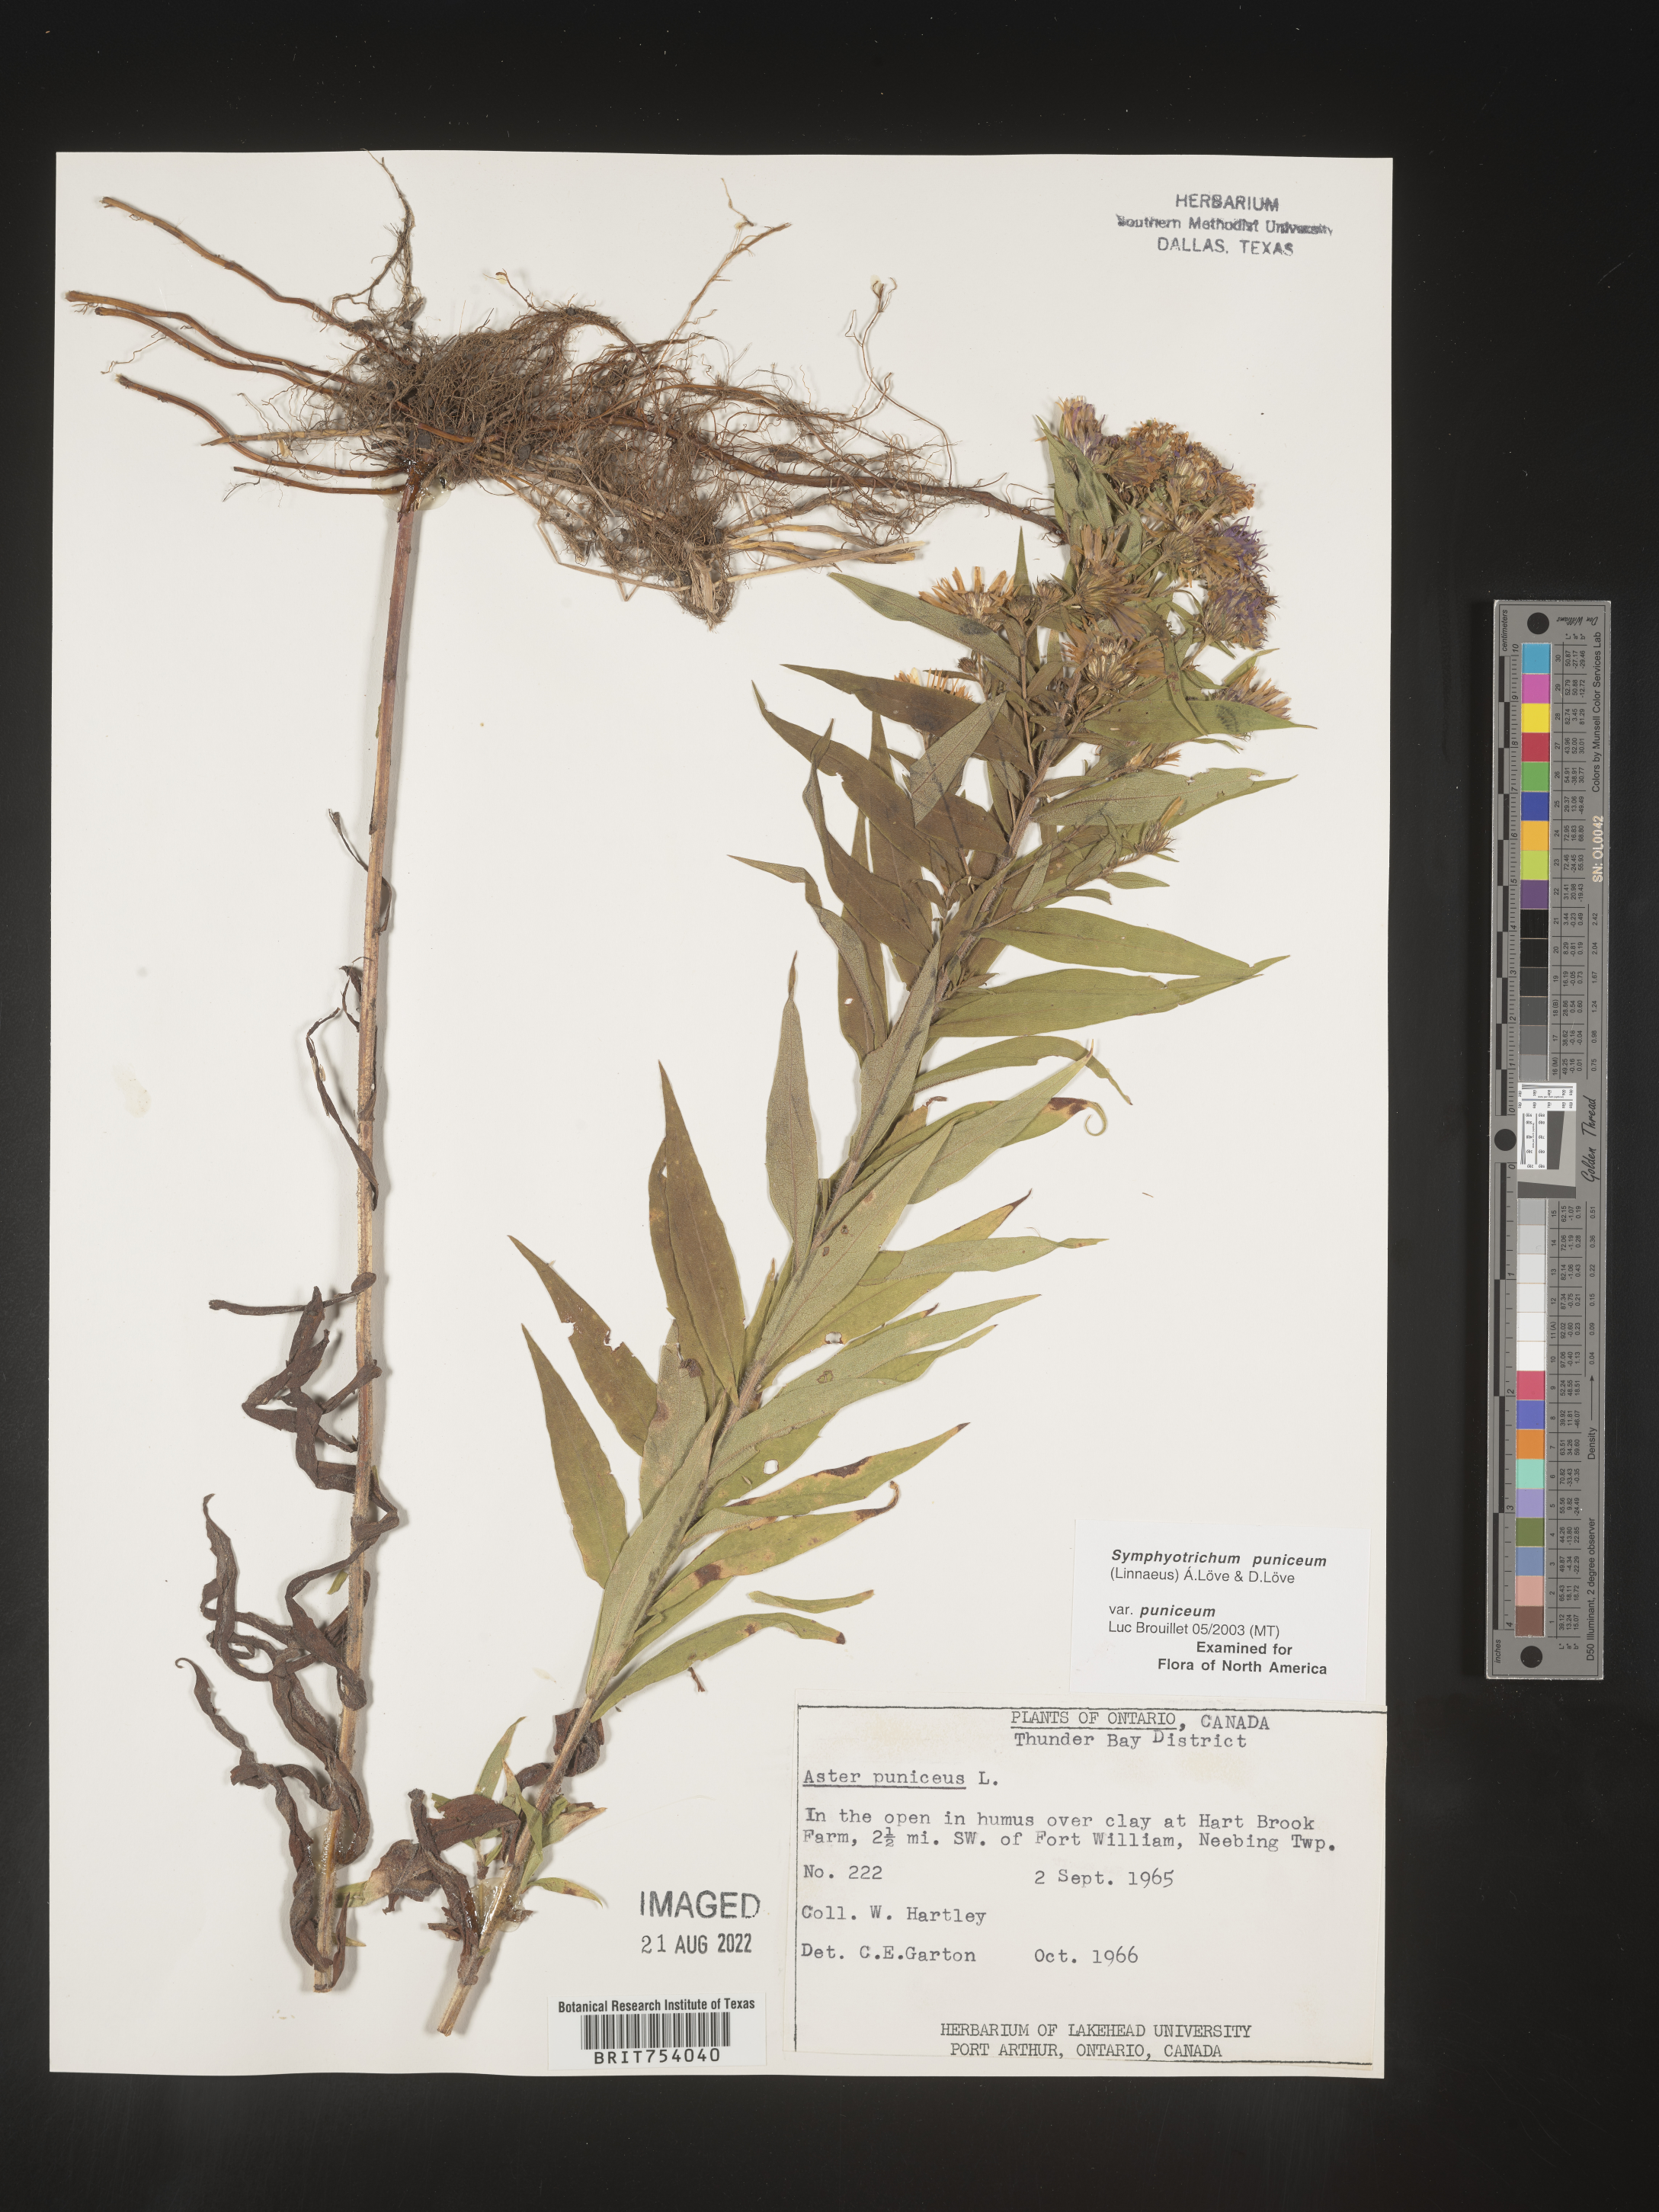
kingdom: Plantae
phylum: Tracheophyta
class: Magnoliopsida
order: Asterales
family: Asteraceae
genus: Symphyotrichum
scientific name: Symphyotrichum puniceum
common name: Bog aster
